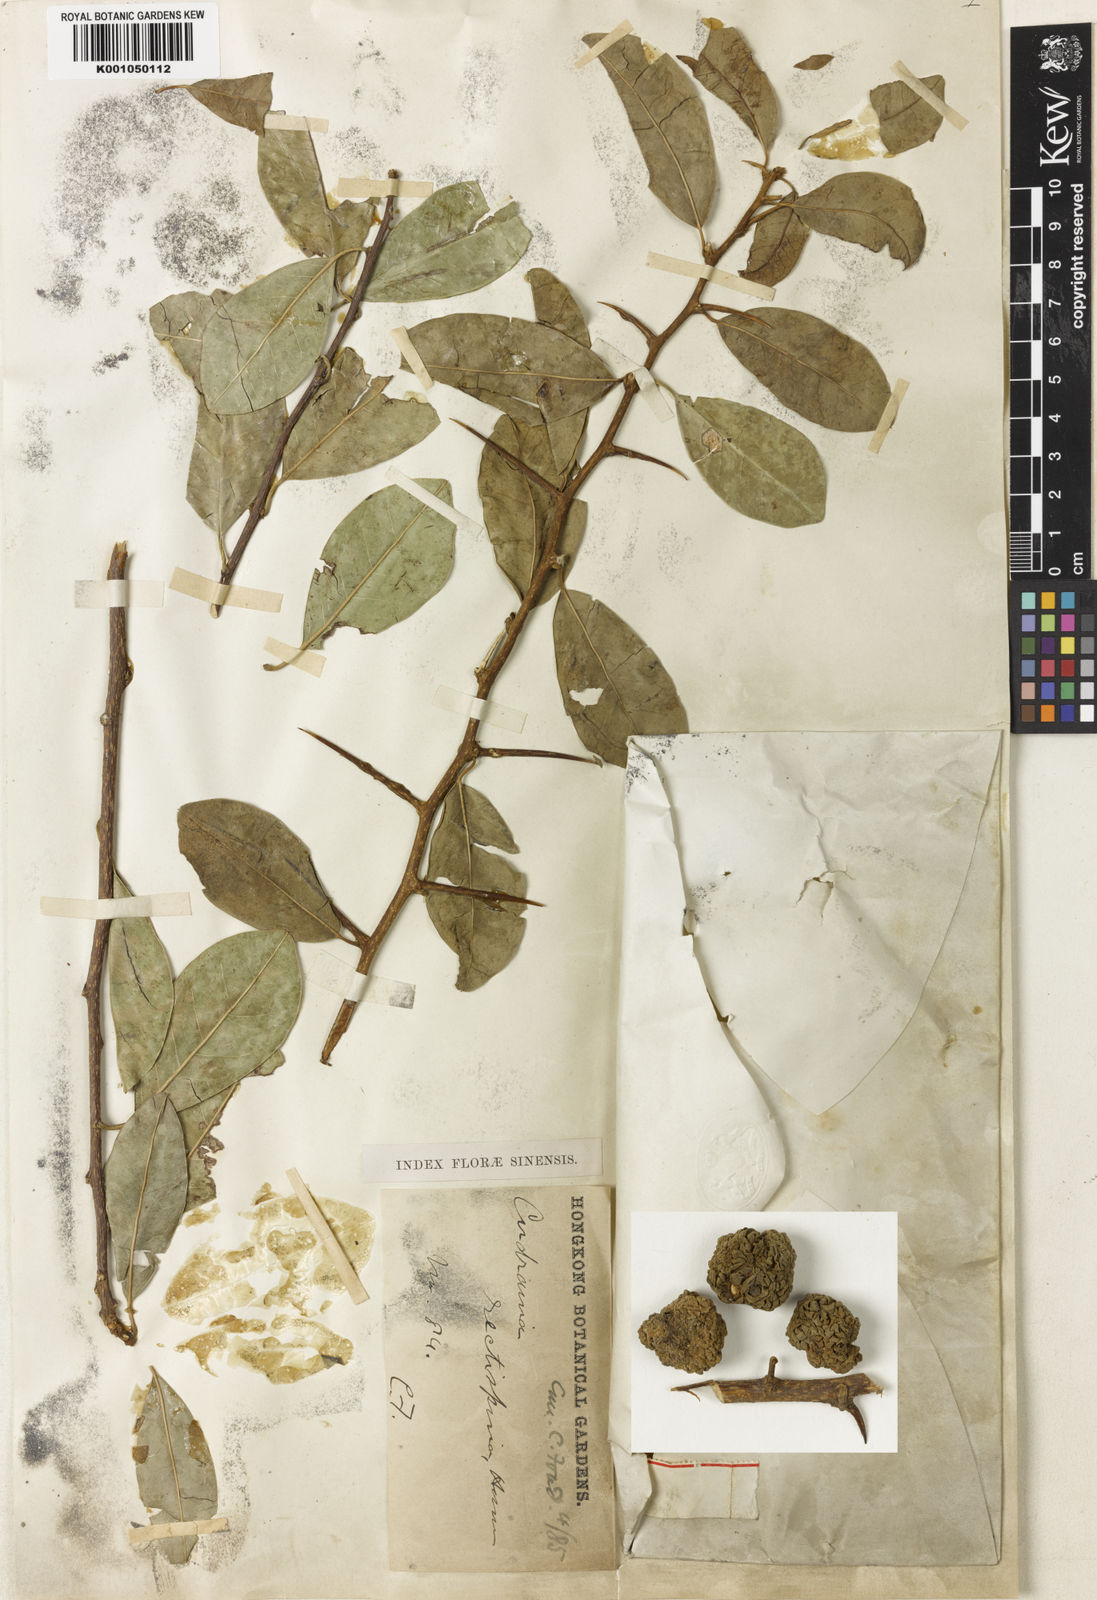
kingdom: Plantae
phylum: Tracheophyta
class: Magnoliopsida
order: Rosales
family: Moraceae
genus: Maclura
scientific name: Maclura cochinchinensis
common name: Cockspurthorn
